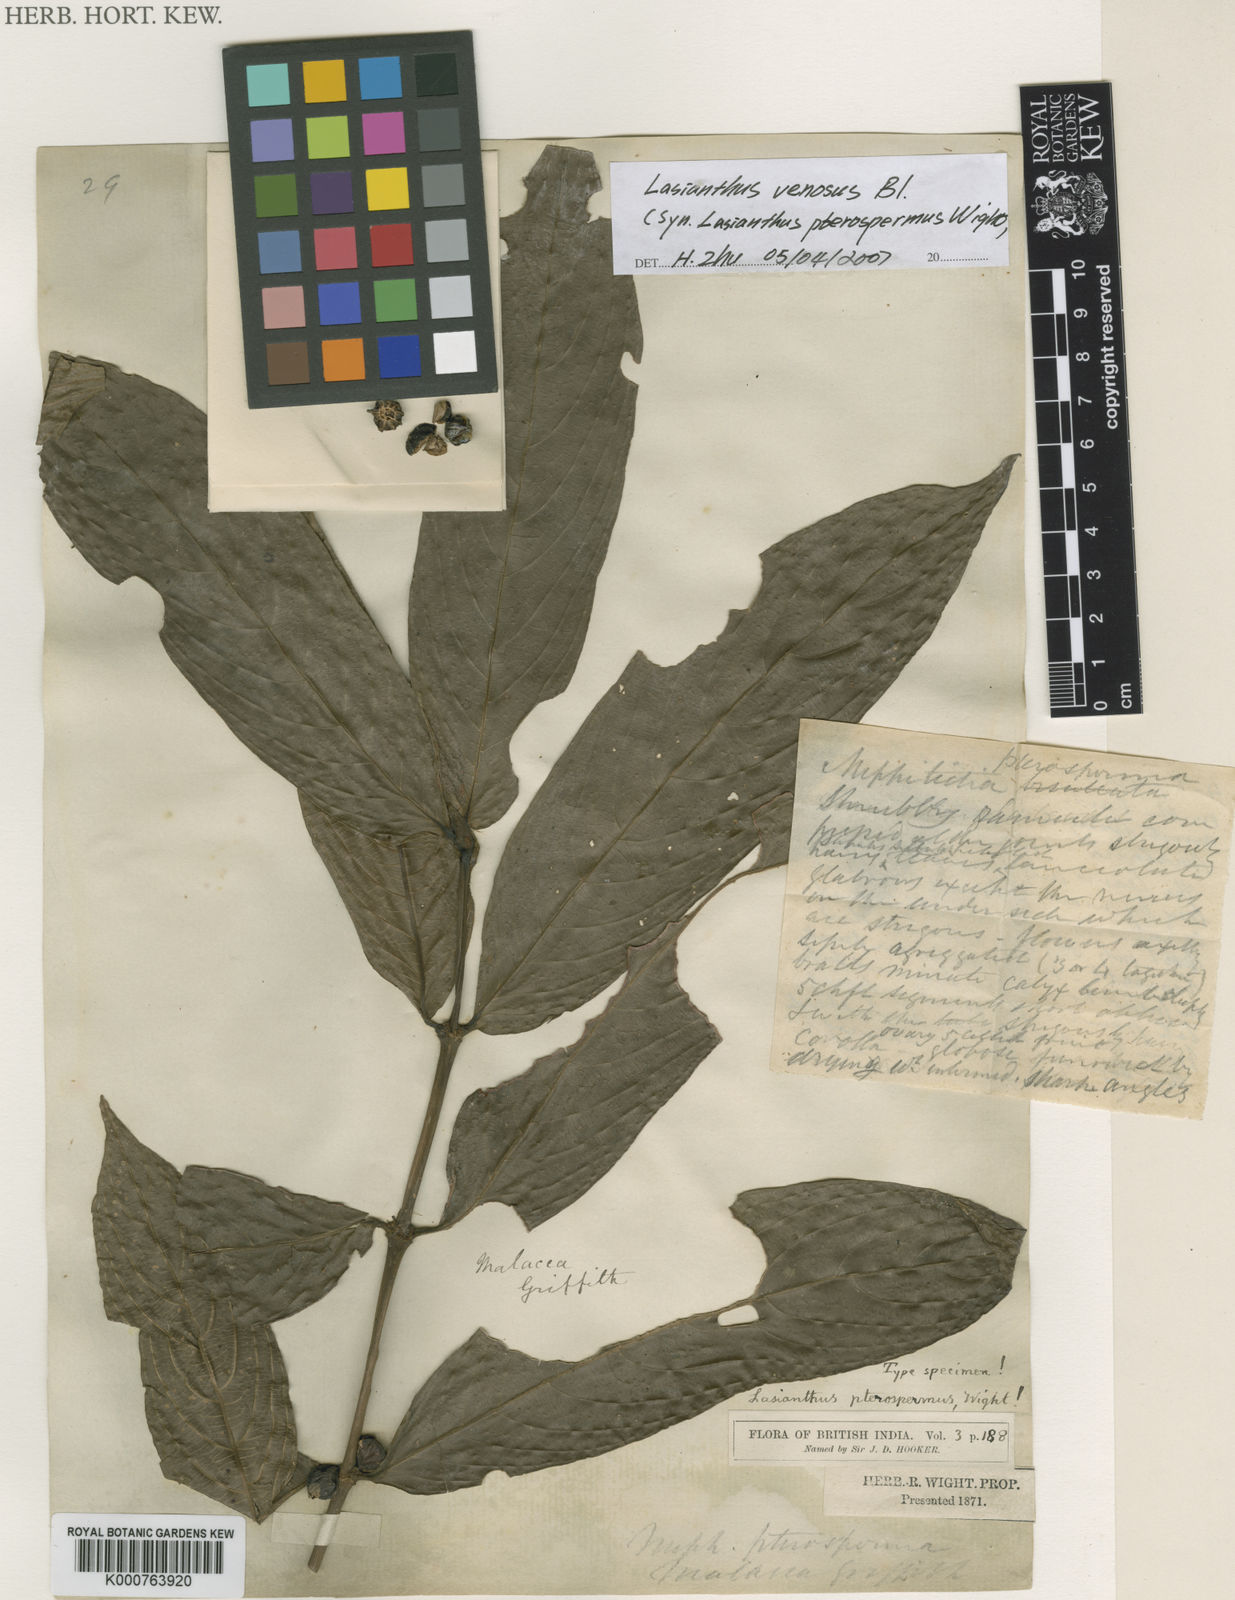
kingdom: Plantae
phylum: Tracheophyta
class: Magnoliopsida
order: Gentianales
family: Rubiaceae
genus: Lasianthus
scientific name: Lasianthus venosus
